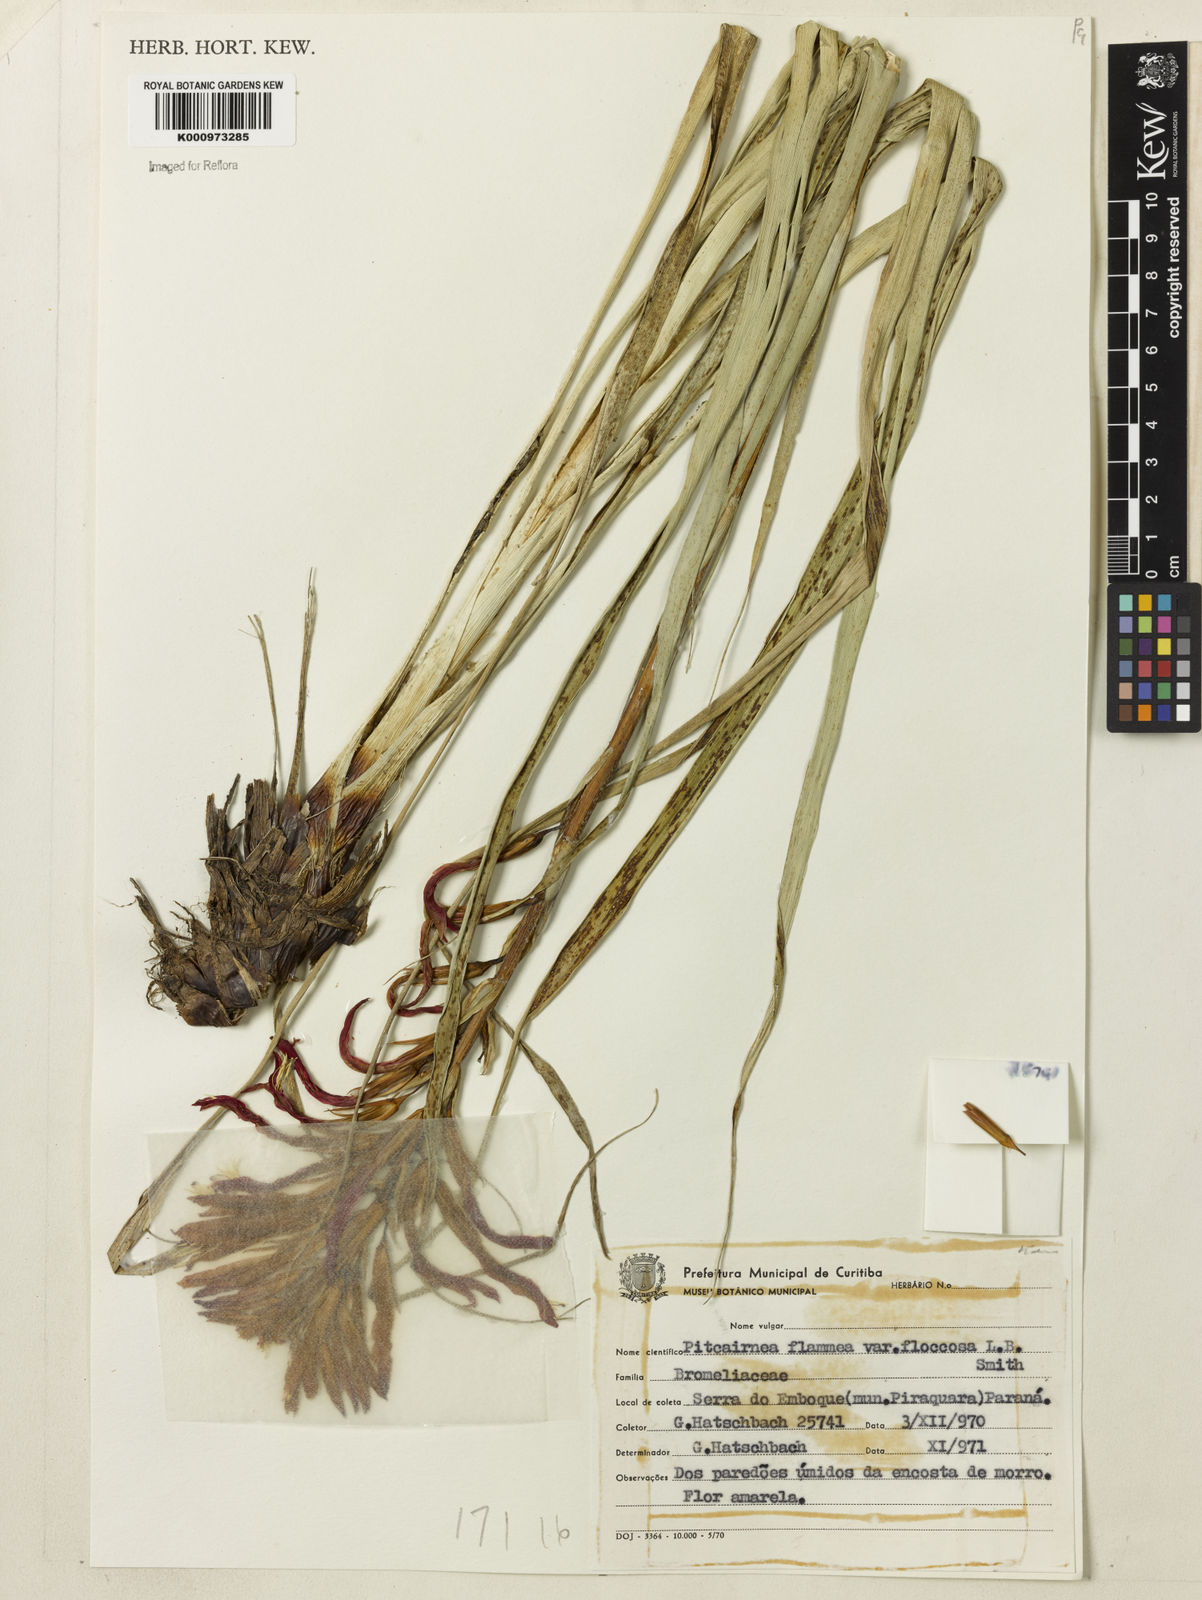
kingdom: Plantae
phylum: Tracheophyta
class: Liliopsida
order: Poales
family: Bromeliaceae
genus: Pitcairnia
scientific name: Pitcairnia flammea
